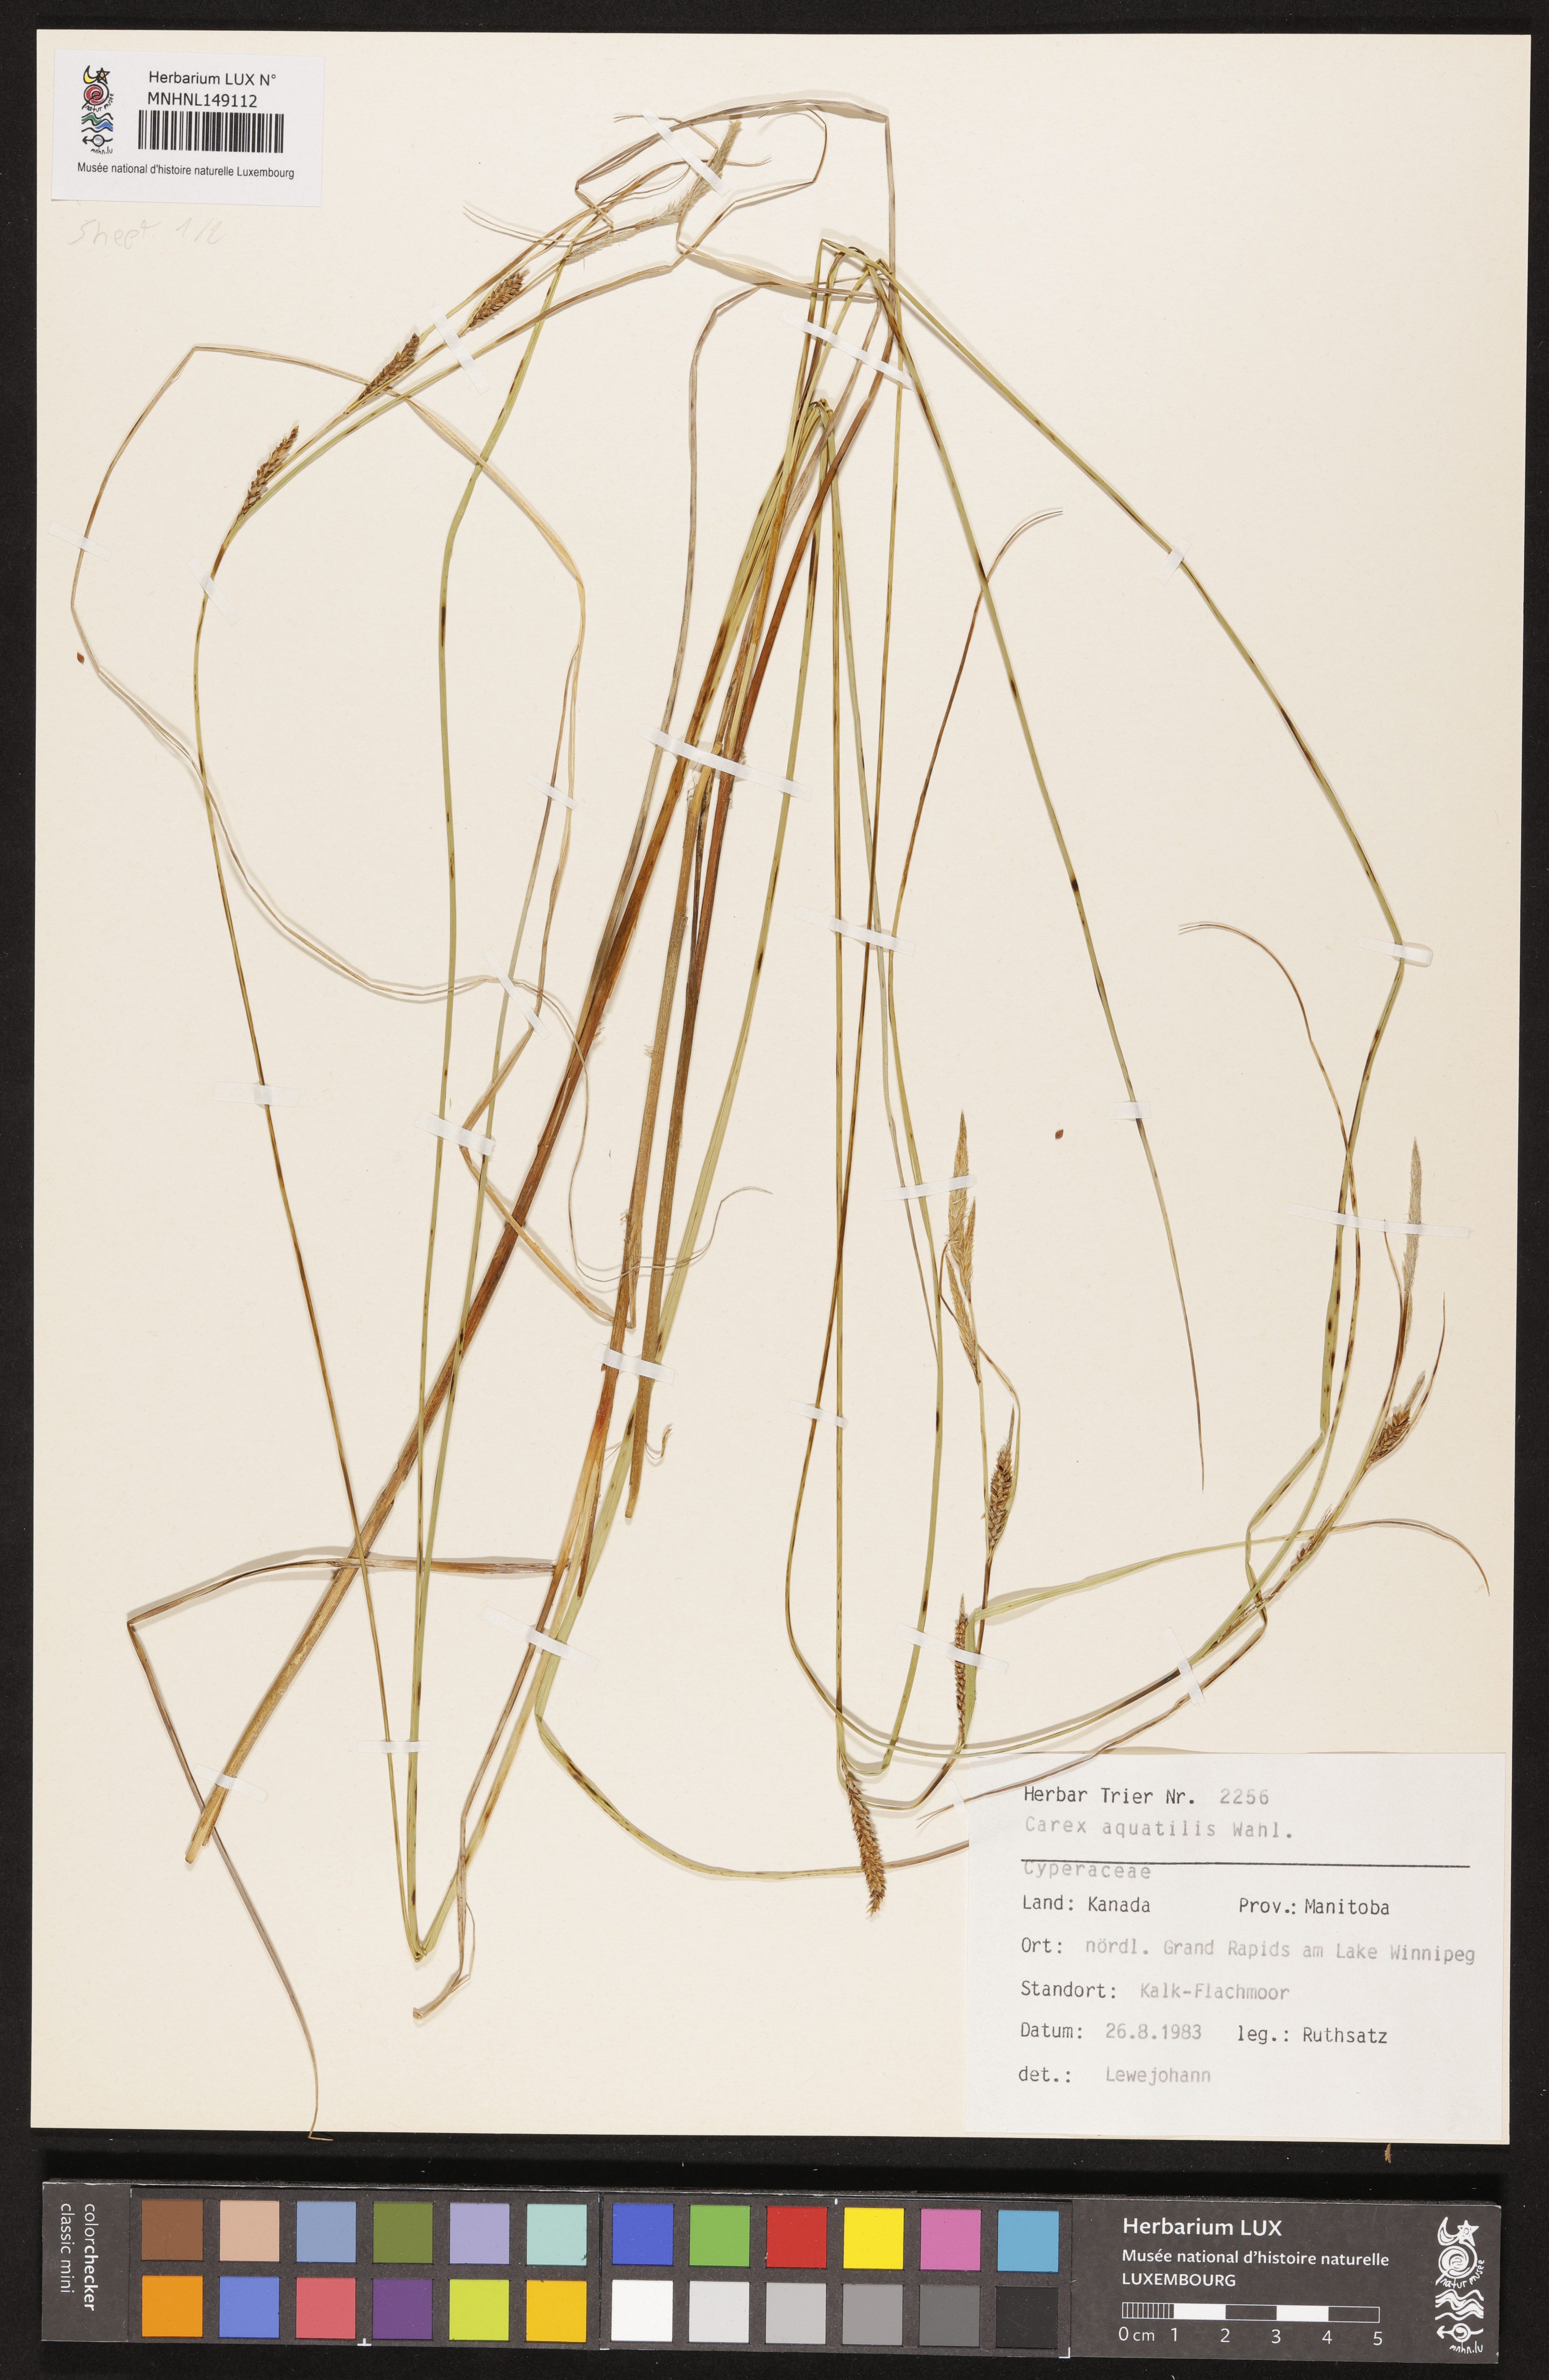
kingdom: Plantae
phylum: Tracheophyta
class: Liliopsida
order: Poales
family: Cyperaceae
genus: Carex
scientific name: Carex aquatilis
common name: Water sedge
